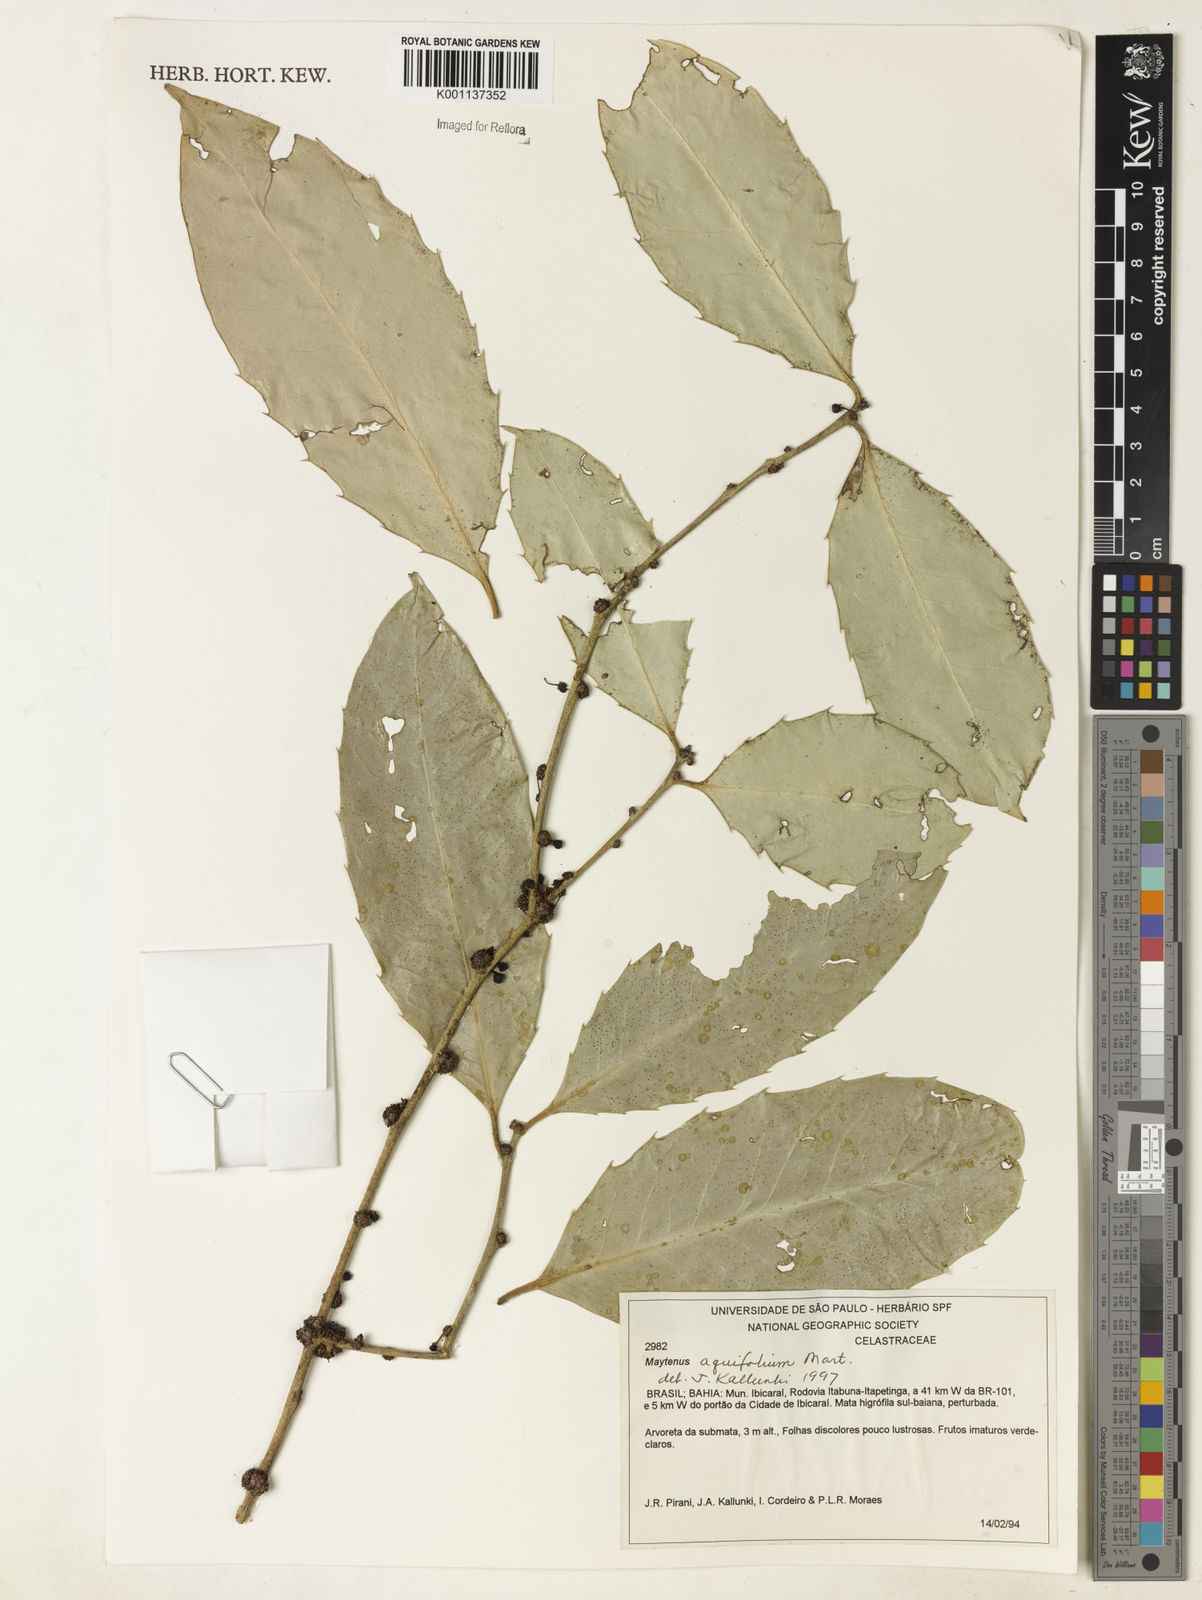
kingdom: Plantae
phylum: Tracheophyta
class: Magnoliopsida
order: Celastrales
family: Celastraceae
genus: Monteverdia
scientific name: Monteverdia aquifolium
